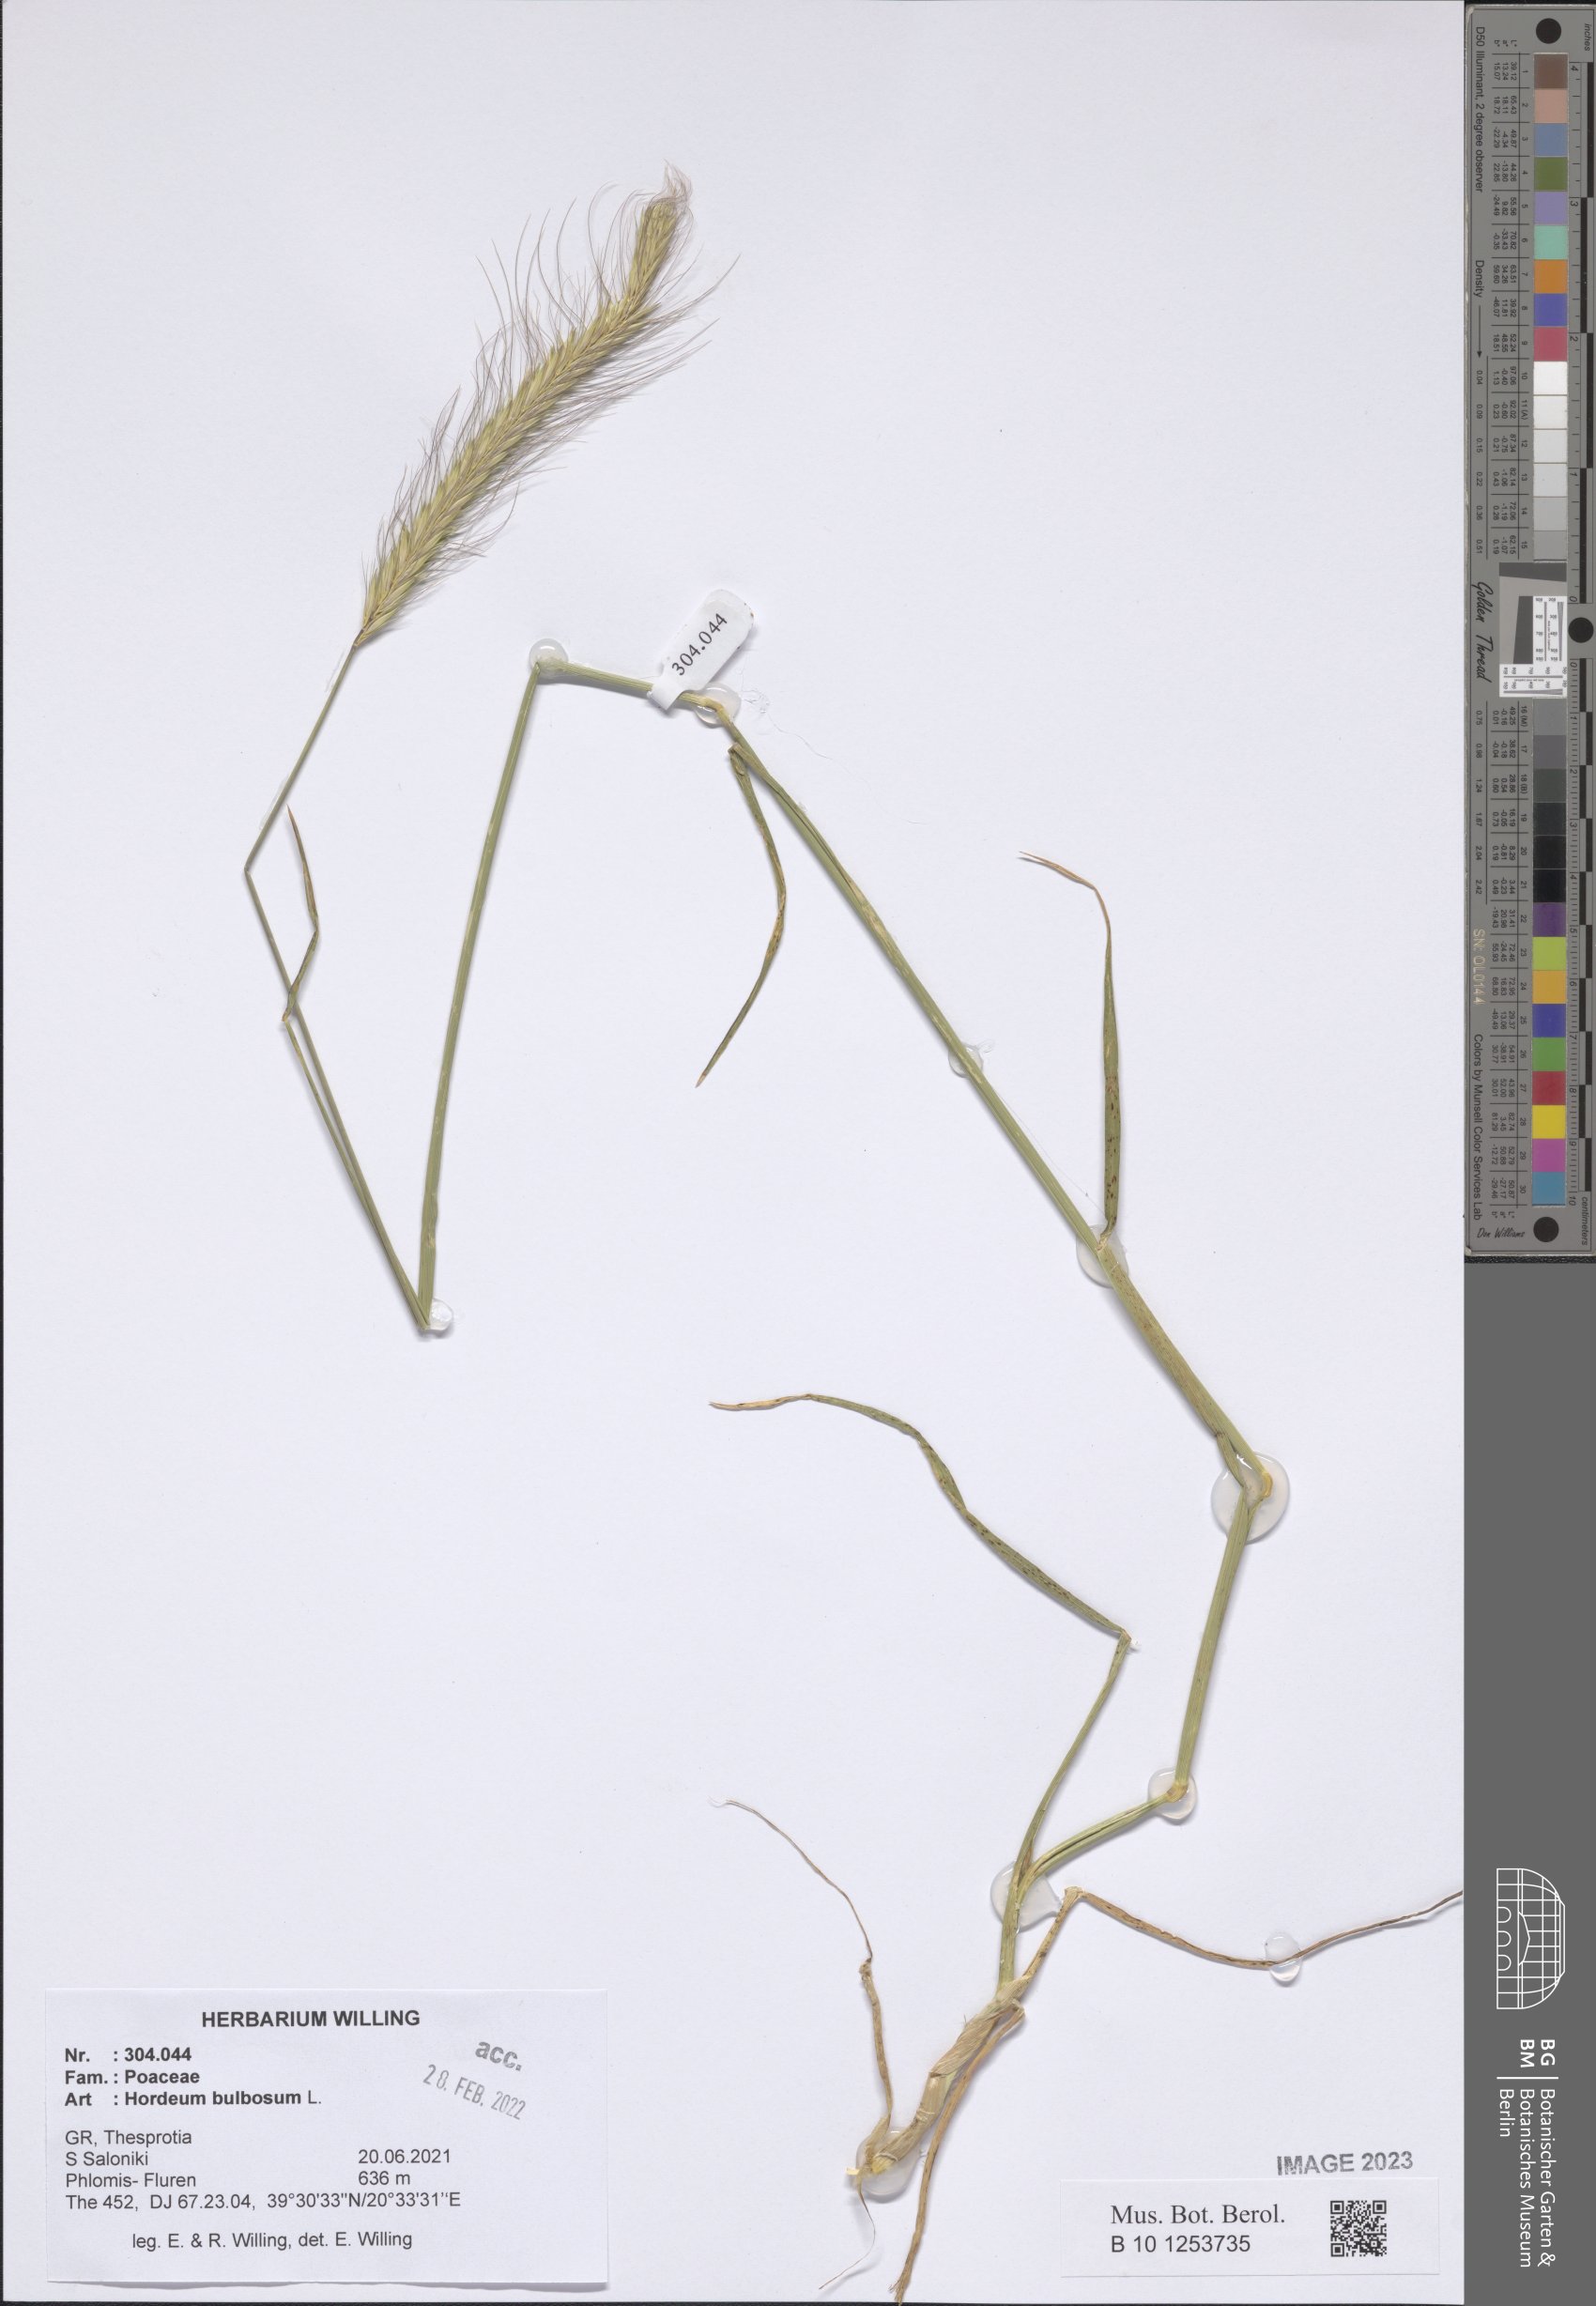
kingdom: Plantae
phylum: Tracheophyta
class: Liliopsida
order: Poales
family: Poaceae
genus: Hordeum
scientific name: Hordeum bulbosum
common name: Bulbous barley
